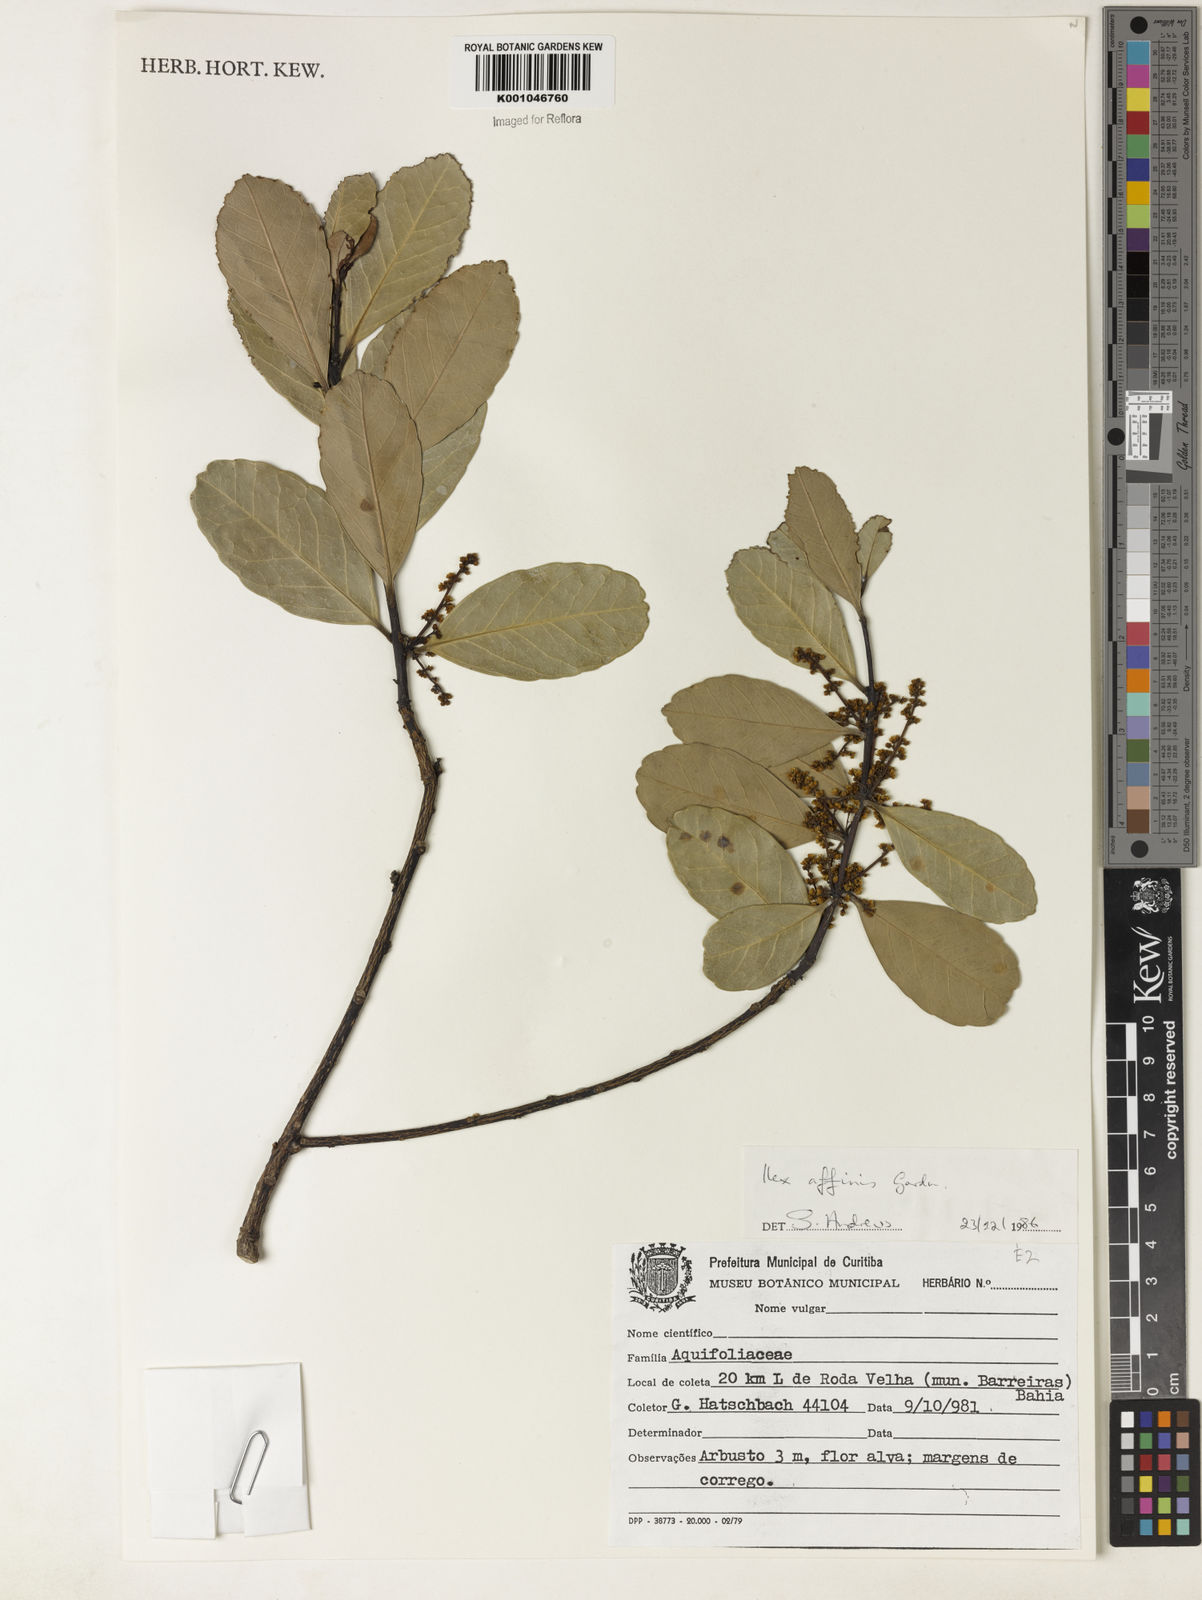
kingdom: Plantae
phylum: Tracheophyta
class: Magnoliopsida
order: Aquifoliales
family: Aquifoliaceae
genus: Ilex
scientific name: Ilex affinis
